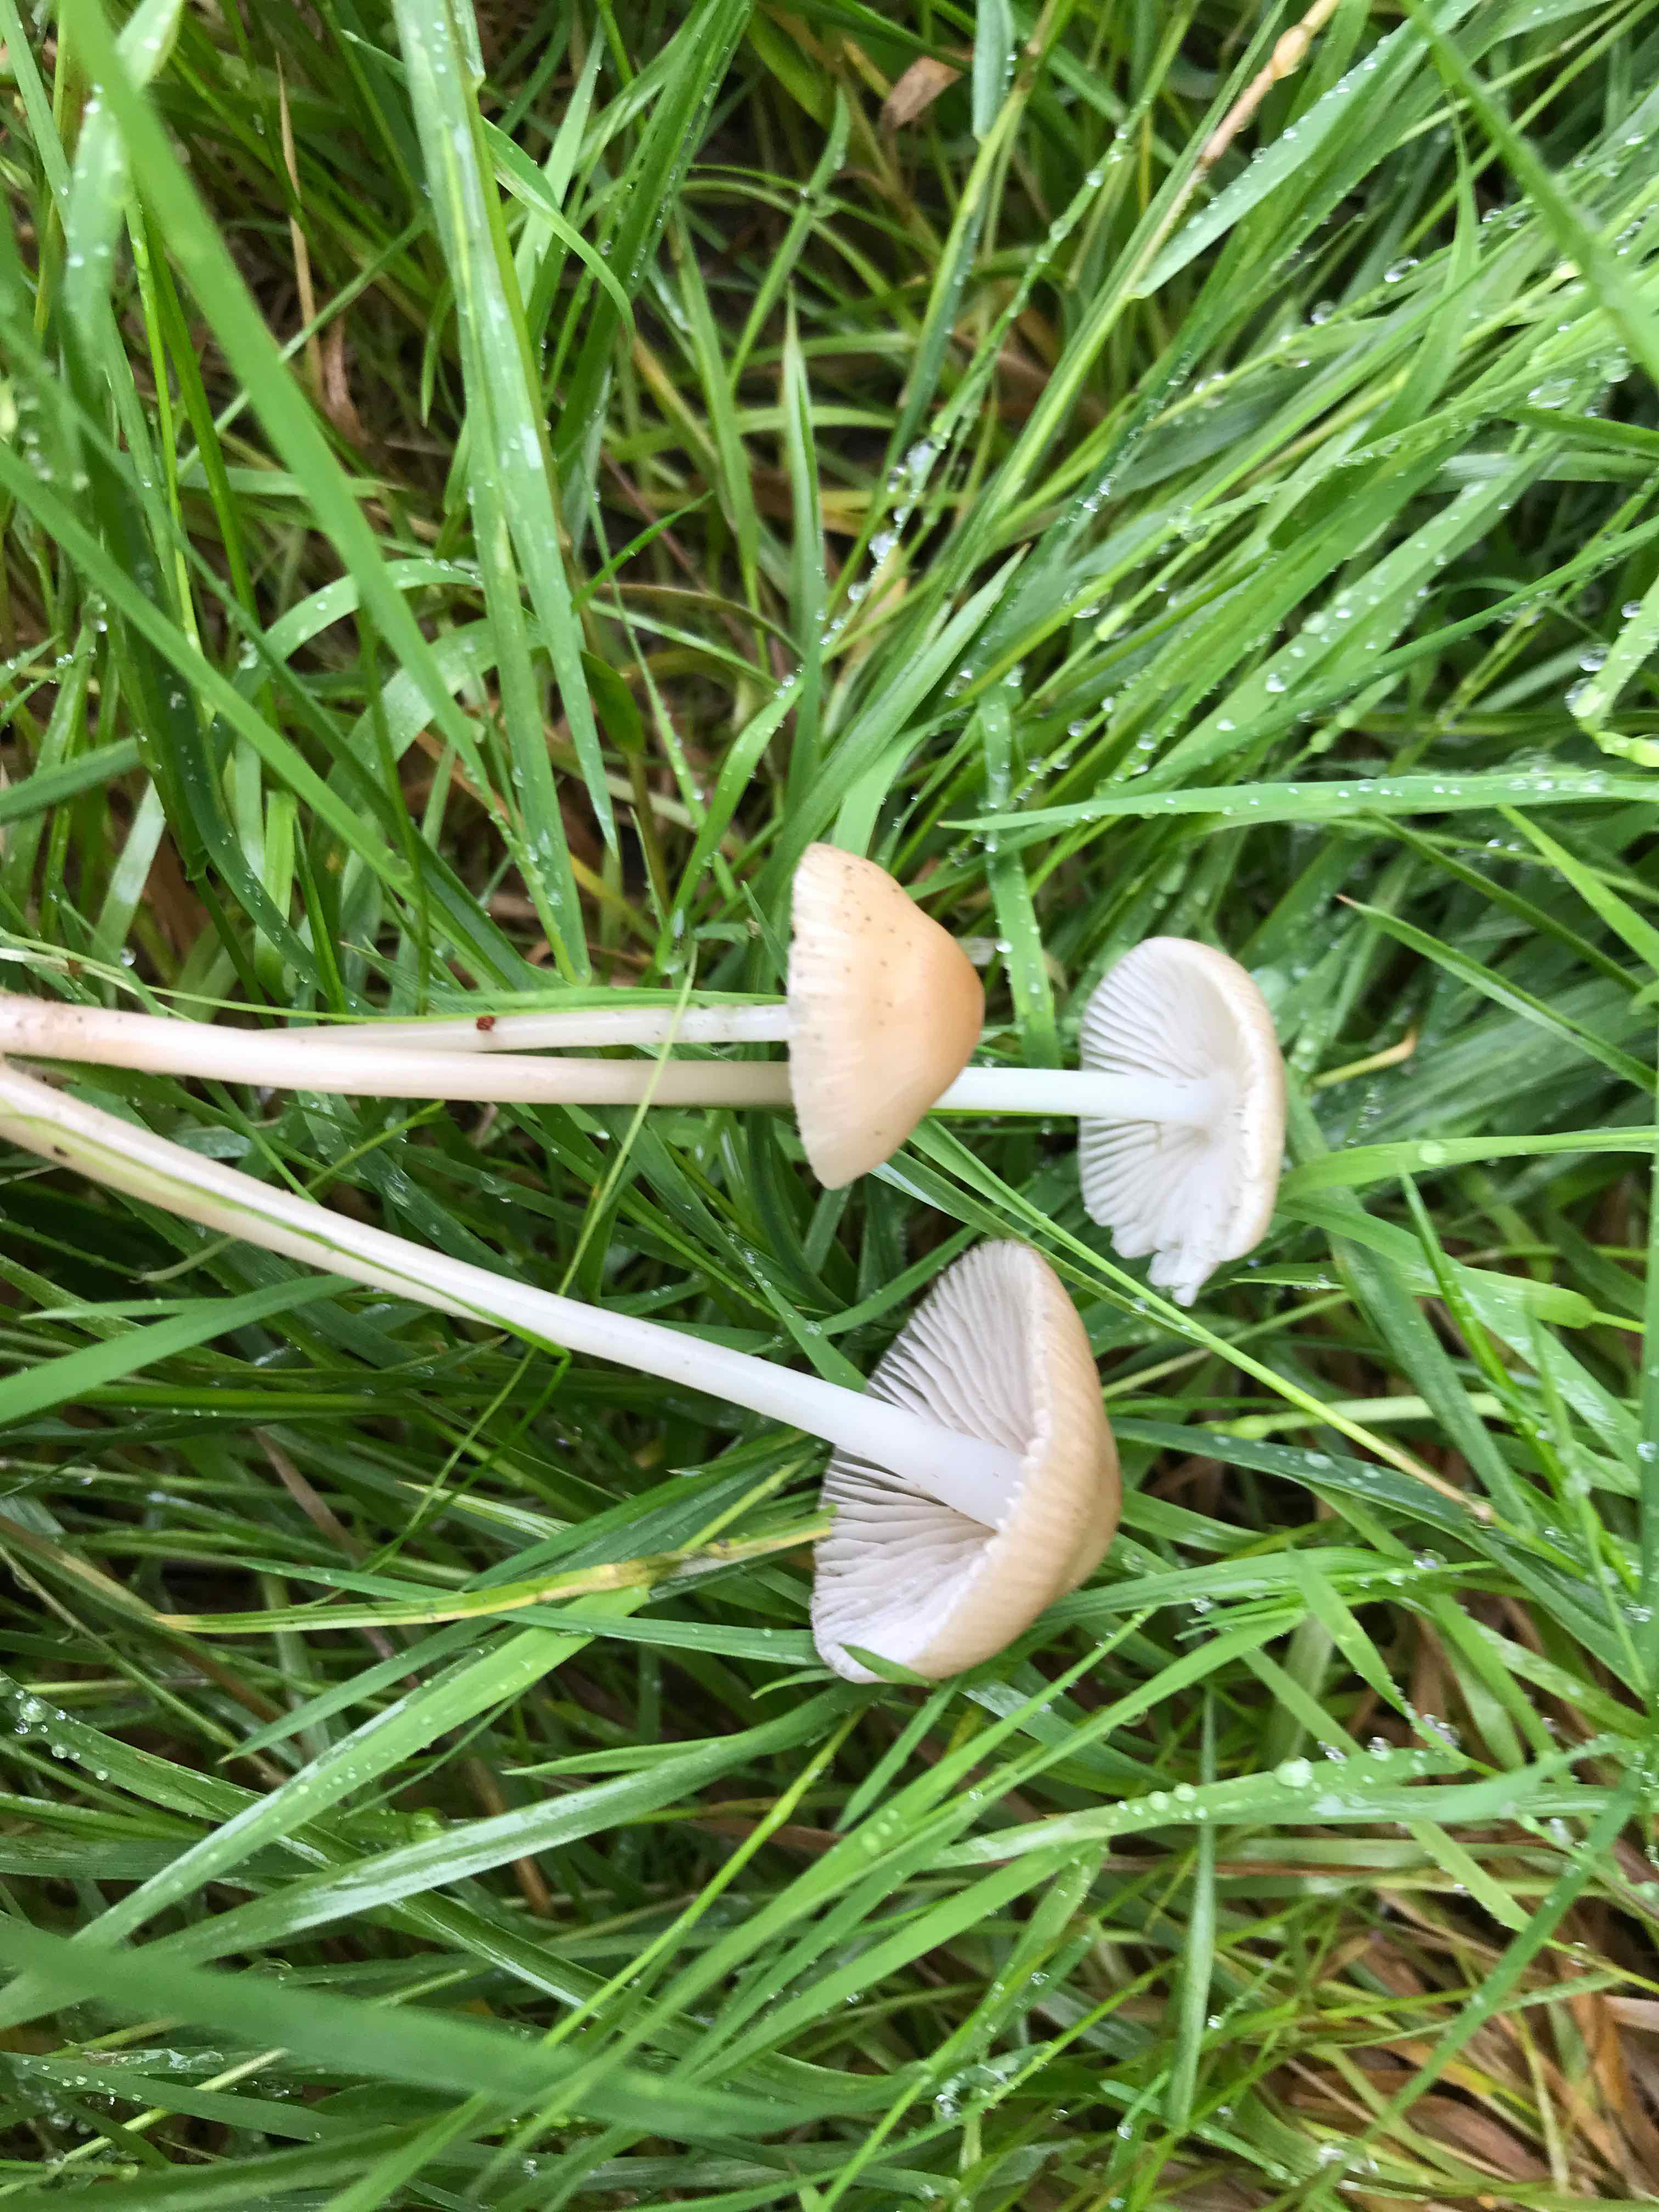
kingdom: Fungi
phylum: Basidiomycota
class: Agaricomycetes
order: Agaricales
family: Mycenaceae
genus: Mycena
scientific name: Mycena
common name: huesvamp
